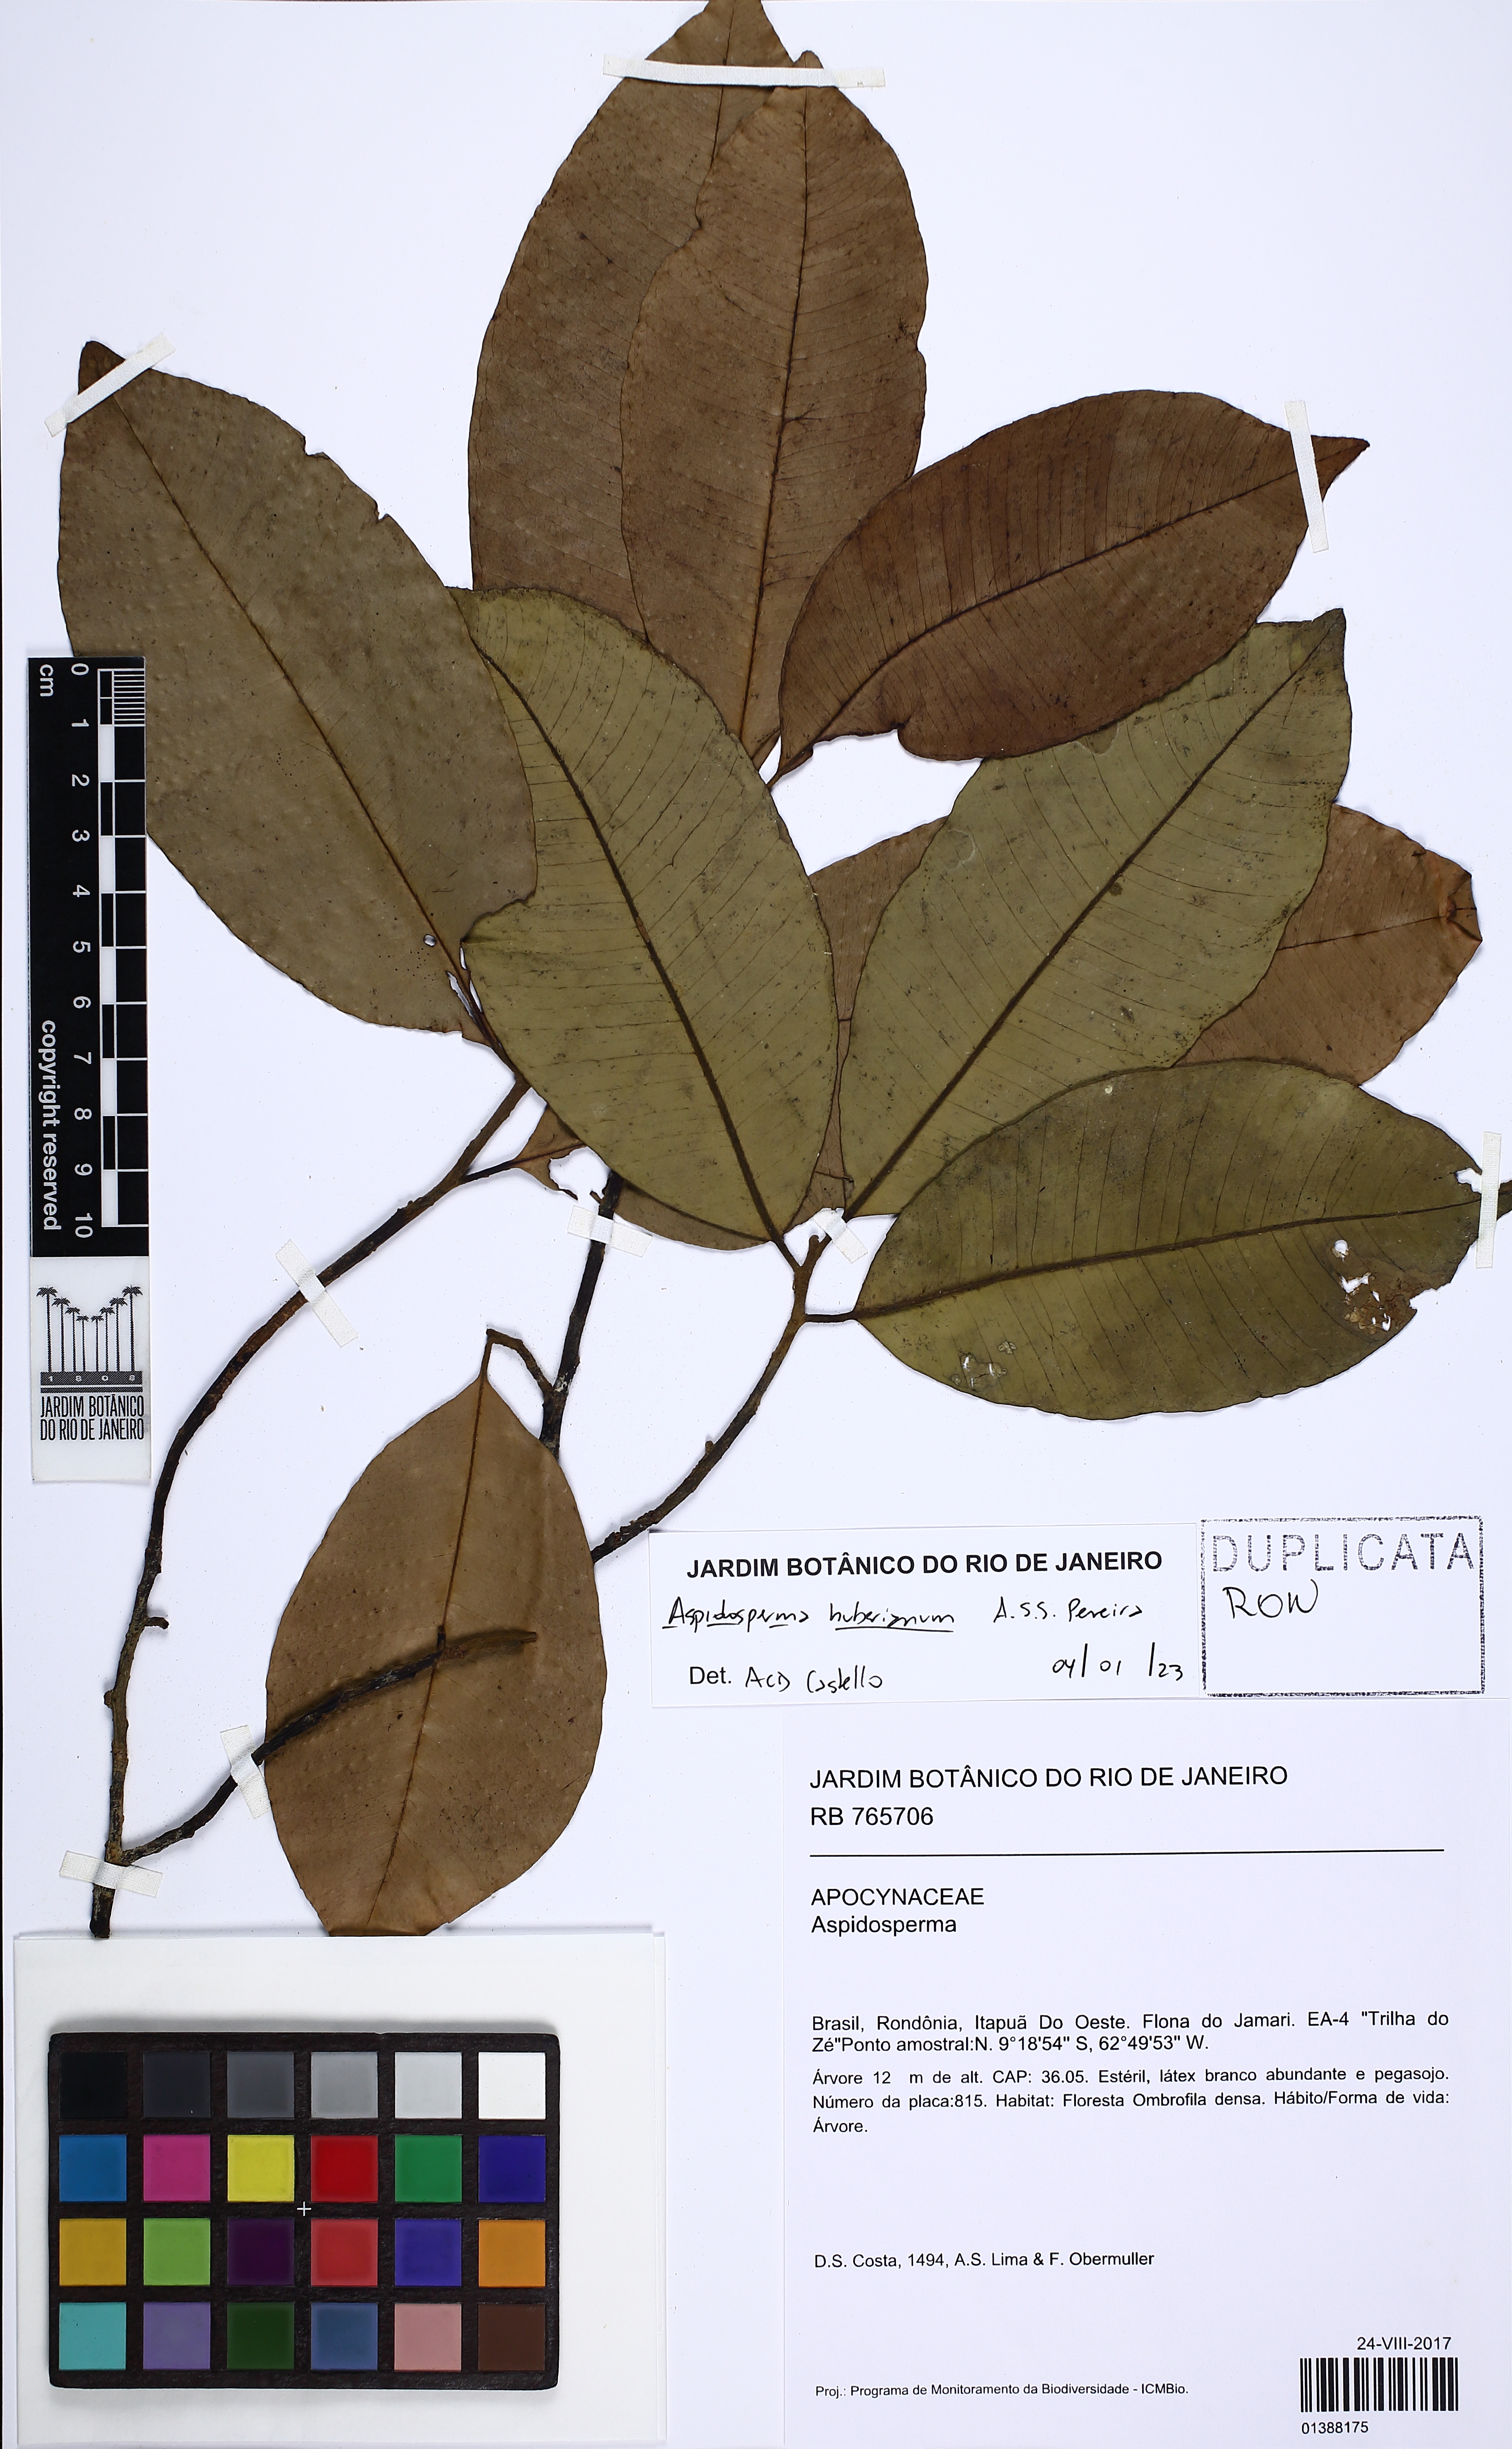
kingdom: Plantae
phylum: Tracheophyta
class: Magnoliopsida
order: Gentianales
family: Apocynaceae
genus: Aspidosperma
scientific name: Aspidosperma huberianum
